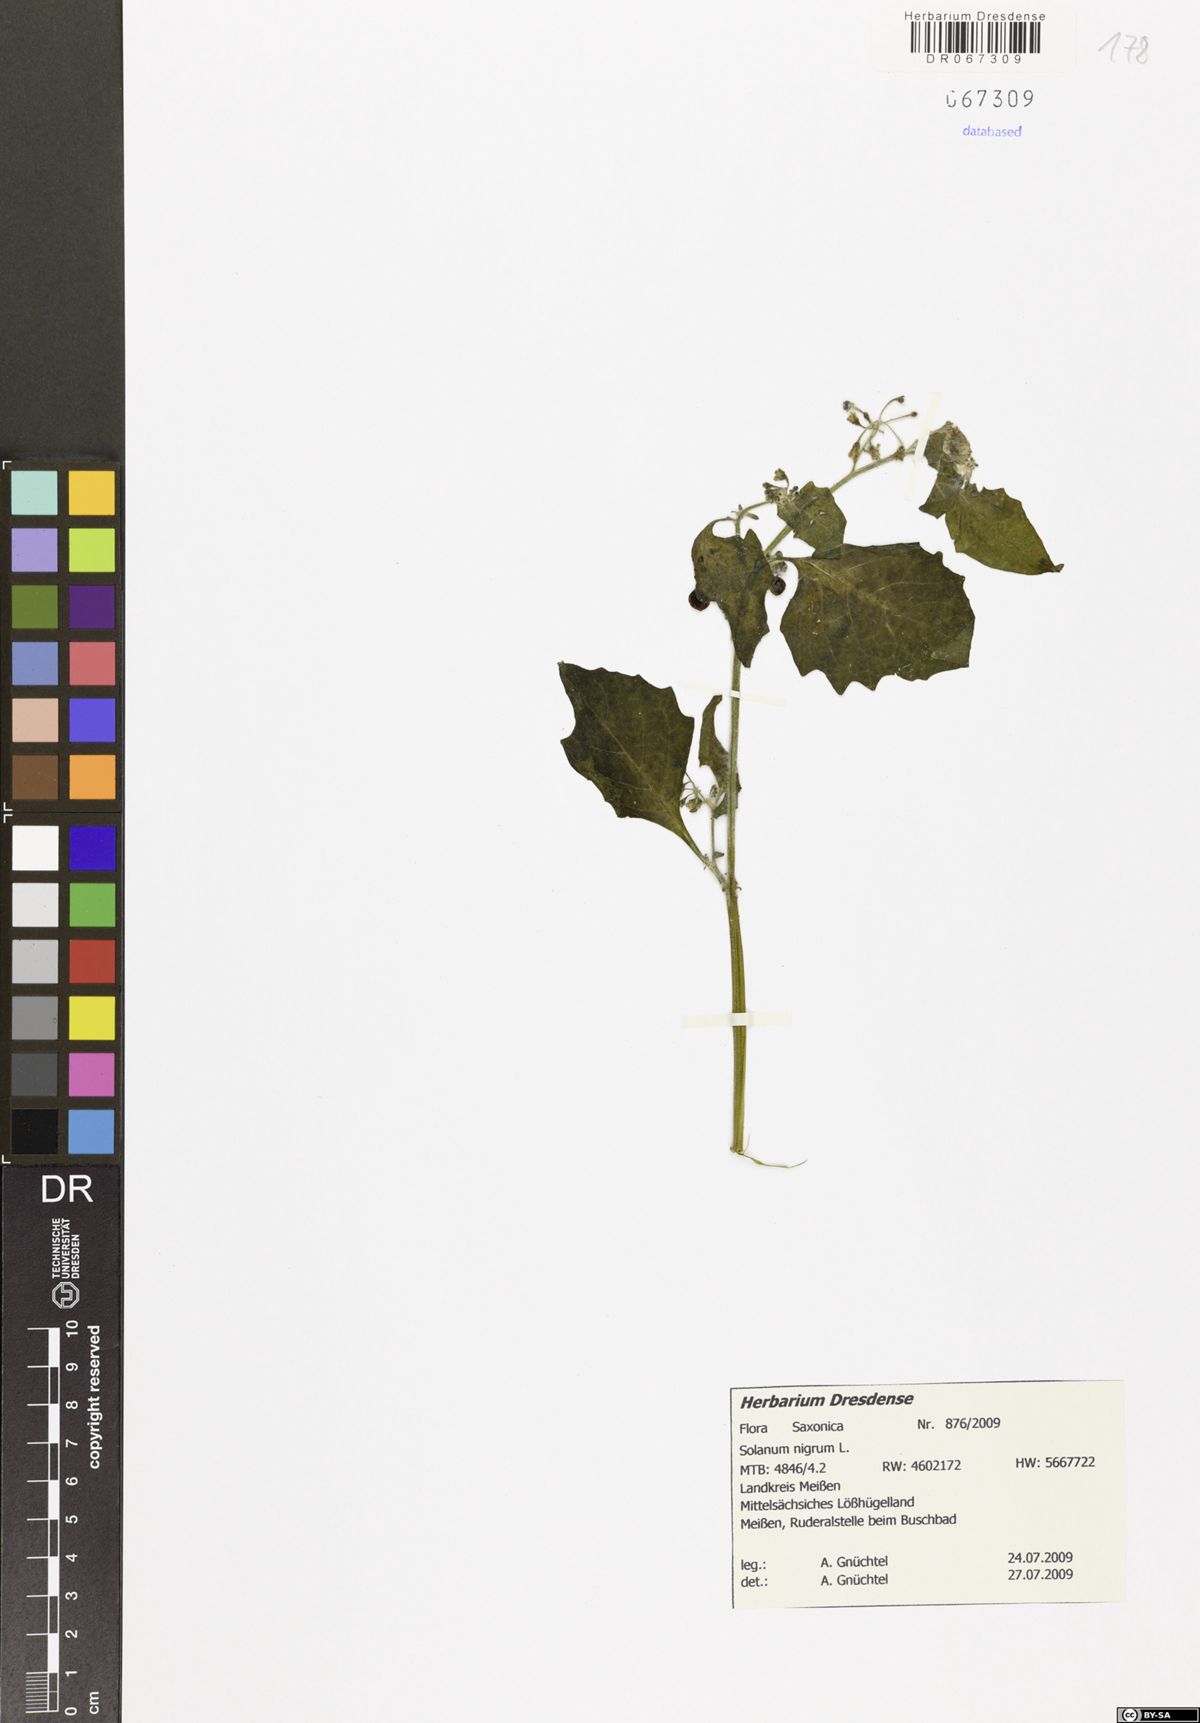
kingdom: Plantae
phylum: Tracheophyta
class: Magnoliopsida
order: Solanales
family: Solanaceae
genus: Solanum
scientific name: Solanum nigrum
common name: Black nightshade
